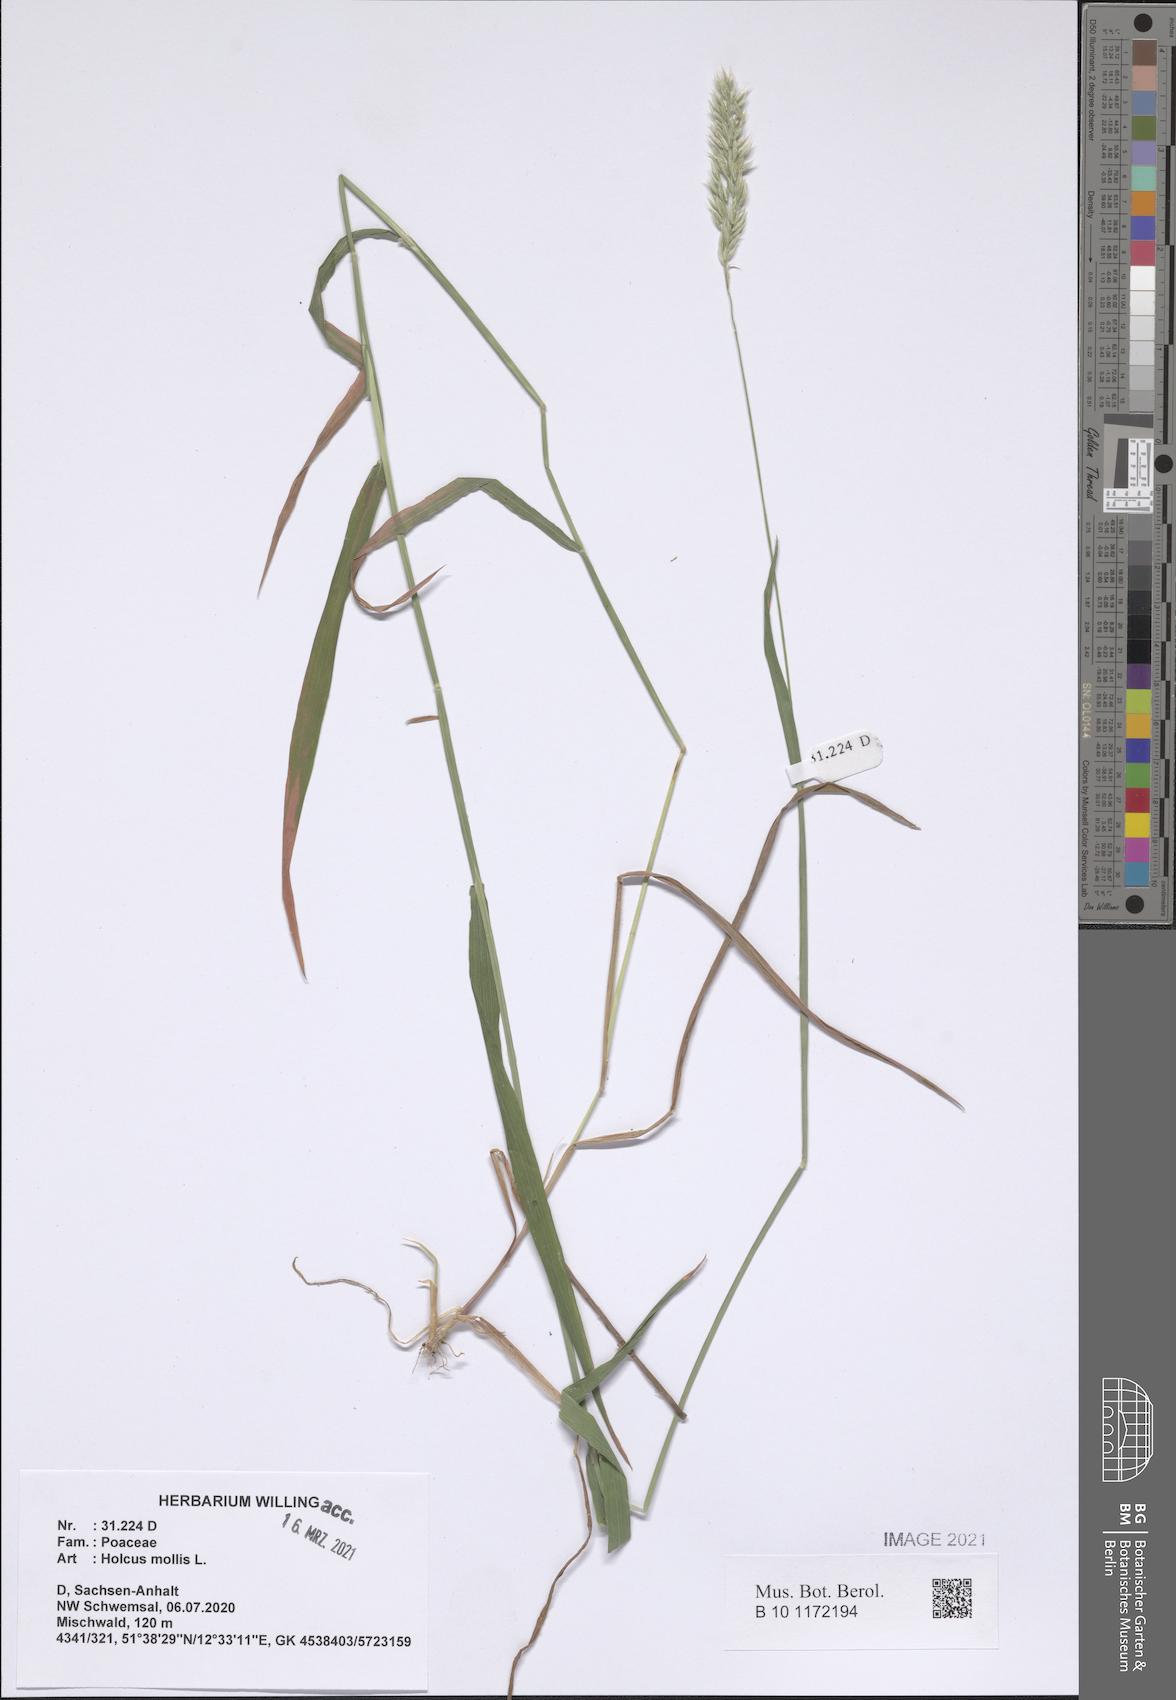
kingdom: Plantae
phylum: Tracheophyta
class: Liliopsida
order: Poales
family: Poaceae
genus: Holcus
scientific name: Holcus mollis
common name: Creeping velvetgrass
